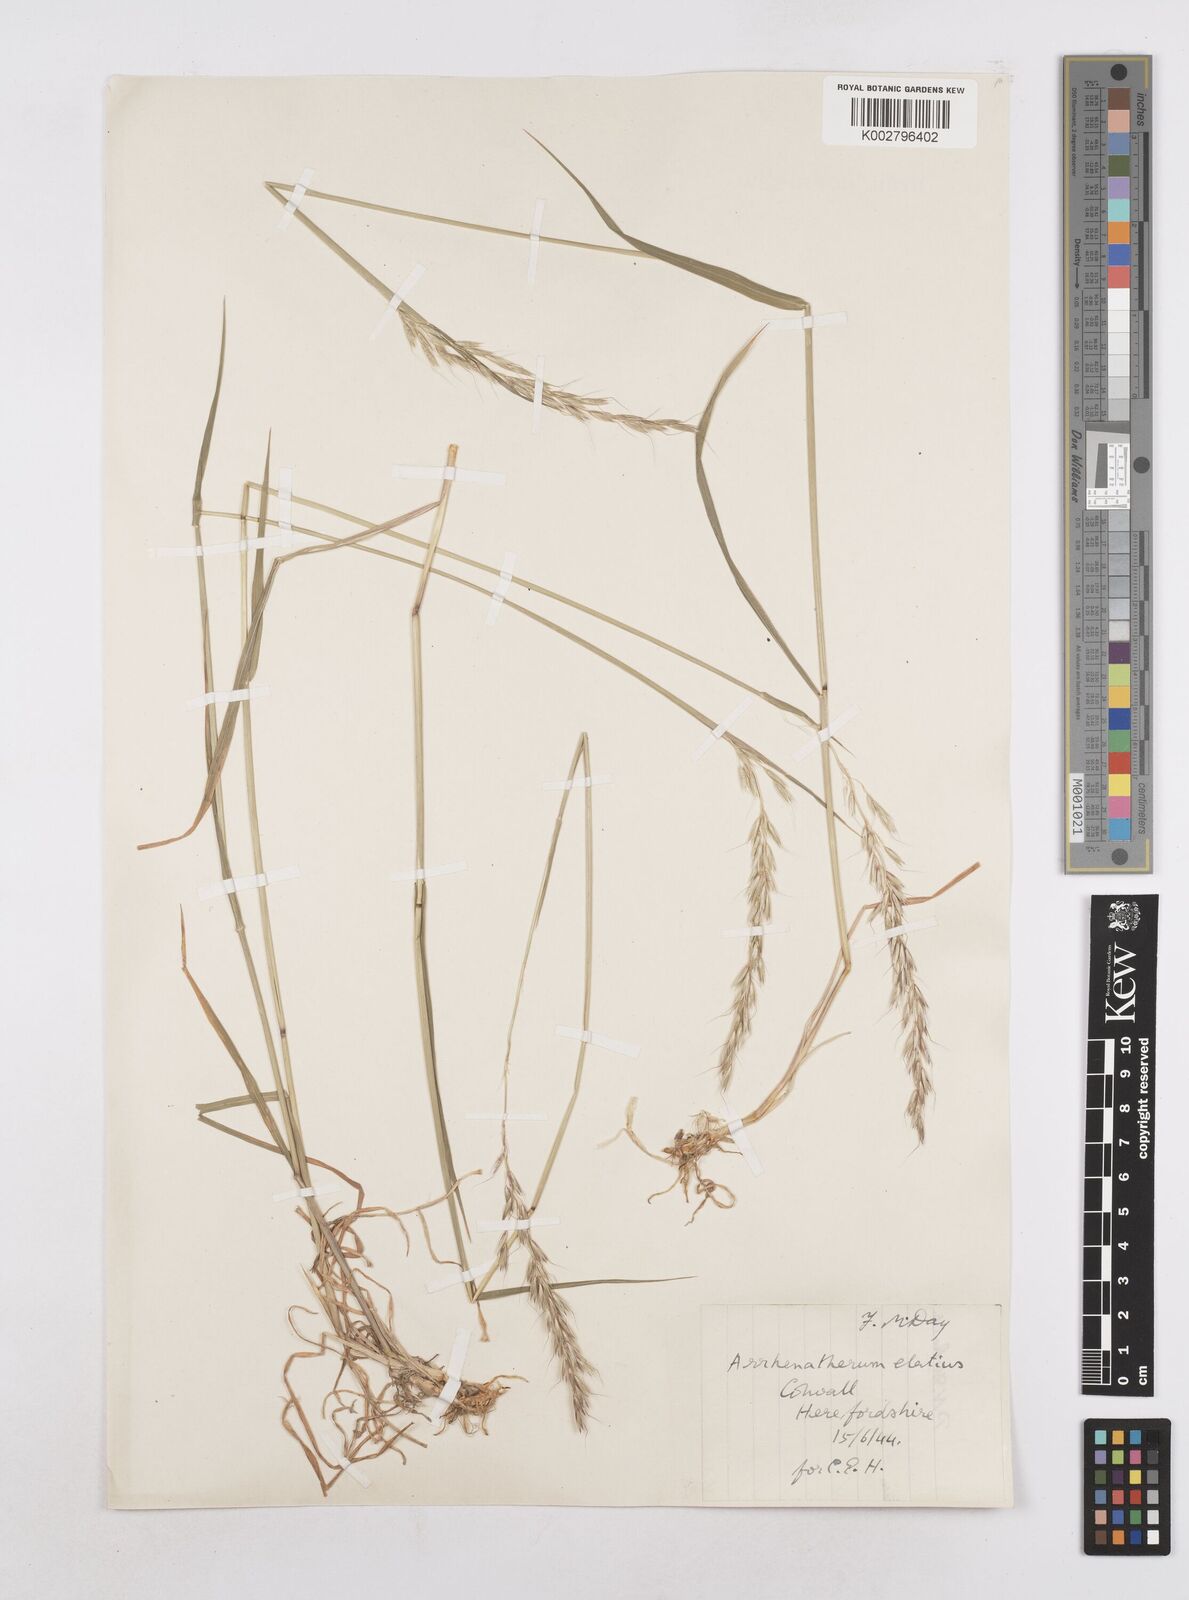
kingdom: Plantae
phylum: Tracheophyta
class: Liliopsida
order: Poales
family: Poaceae
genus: Arrhenatherum
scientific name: Arrhenatherum elatius
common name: Tall oatgrass
